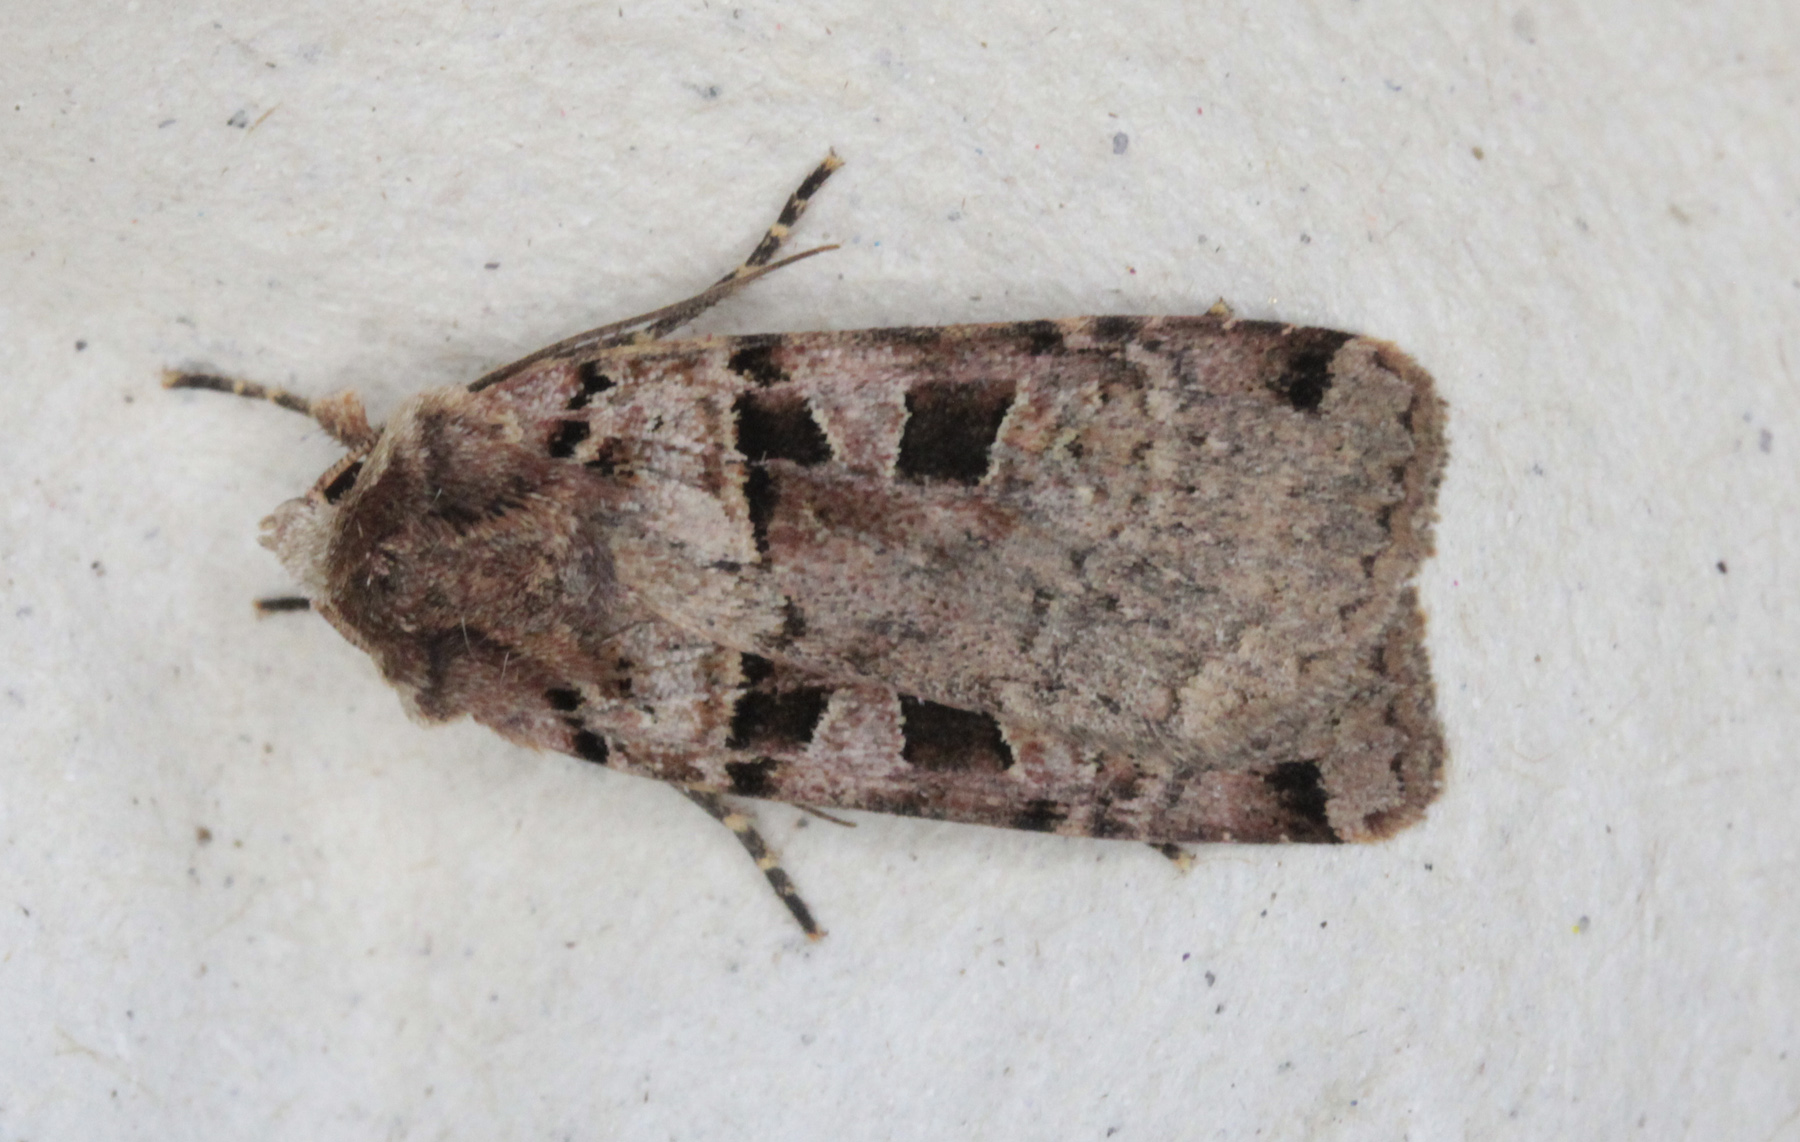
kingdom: Animalia
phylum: Arthropoda
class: Insecta
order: Lepidoptera
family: Noctuidae
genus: Xestia
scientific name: Xestia triangulum
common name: Double square-spot
